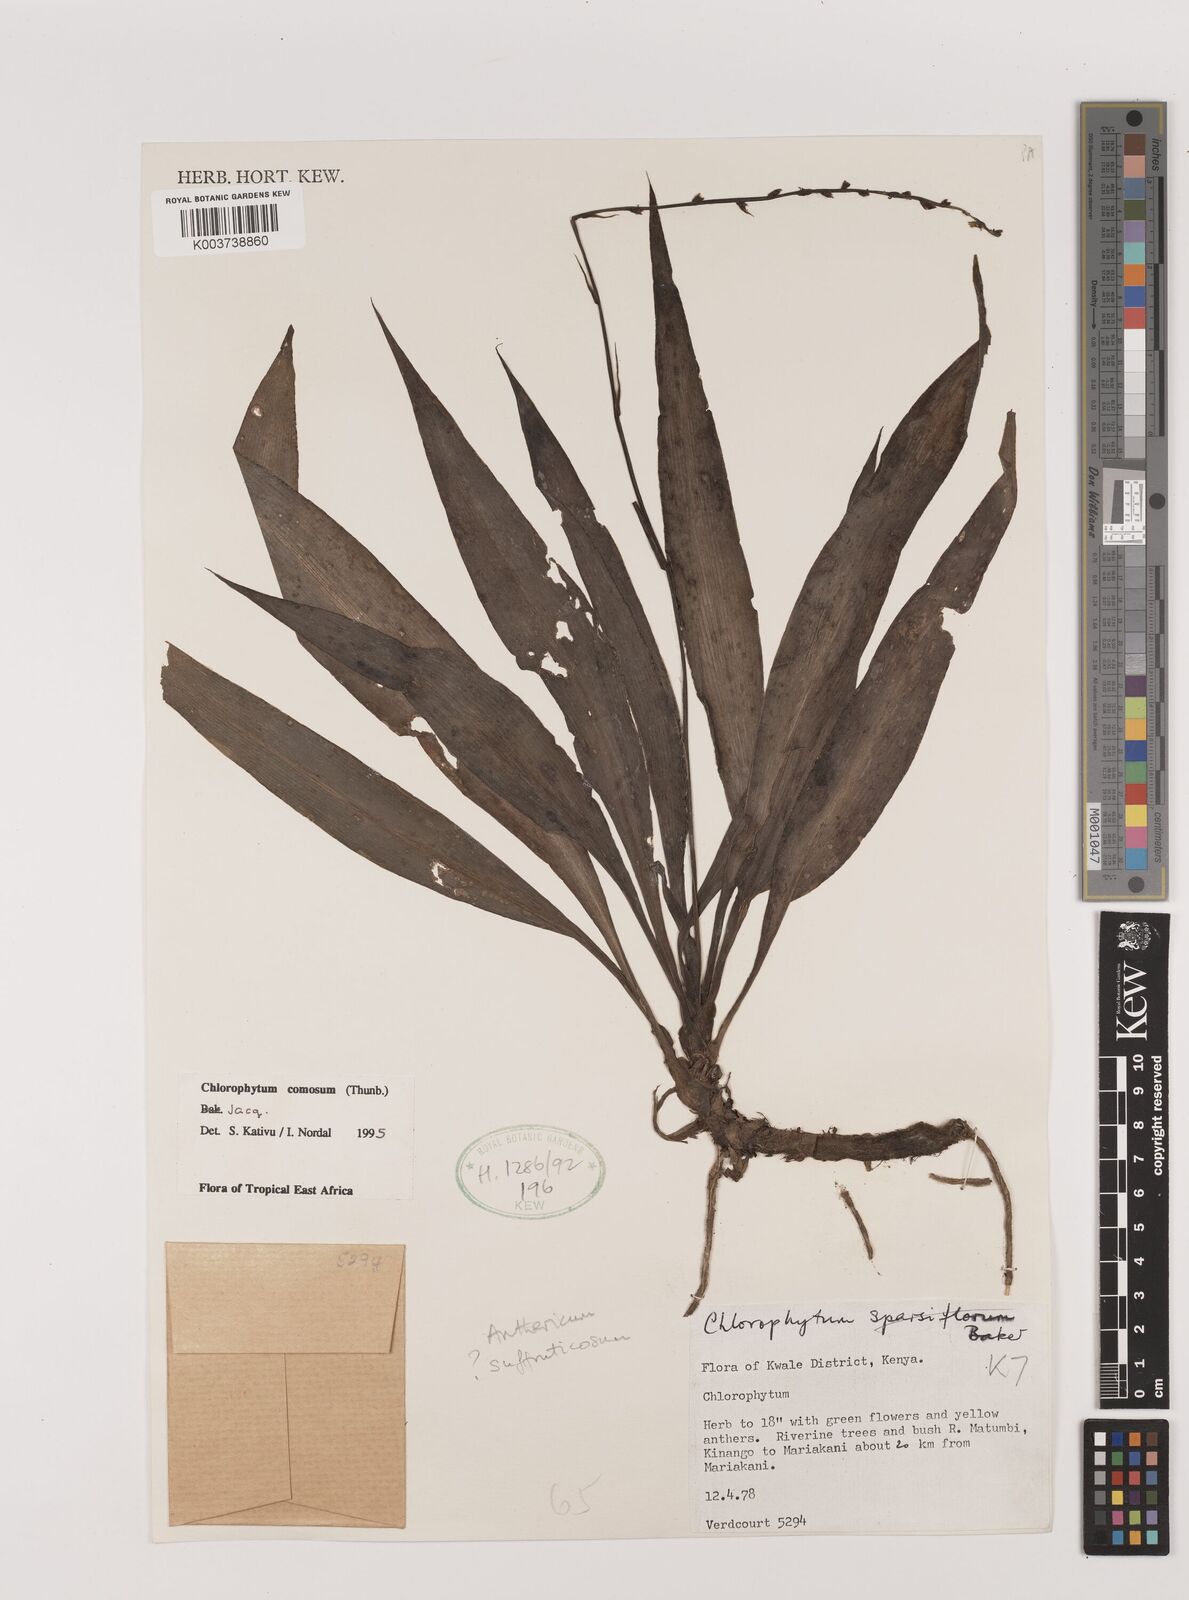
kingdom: Plantae
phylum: Tracheophyta
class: Liliopsida
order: Asparagales
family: Asparagaceae
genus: Chlorophytum
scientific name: Chlorophytum comosum
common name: Spider plant
